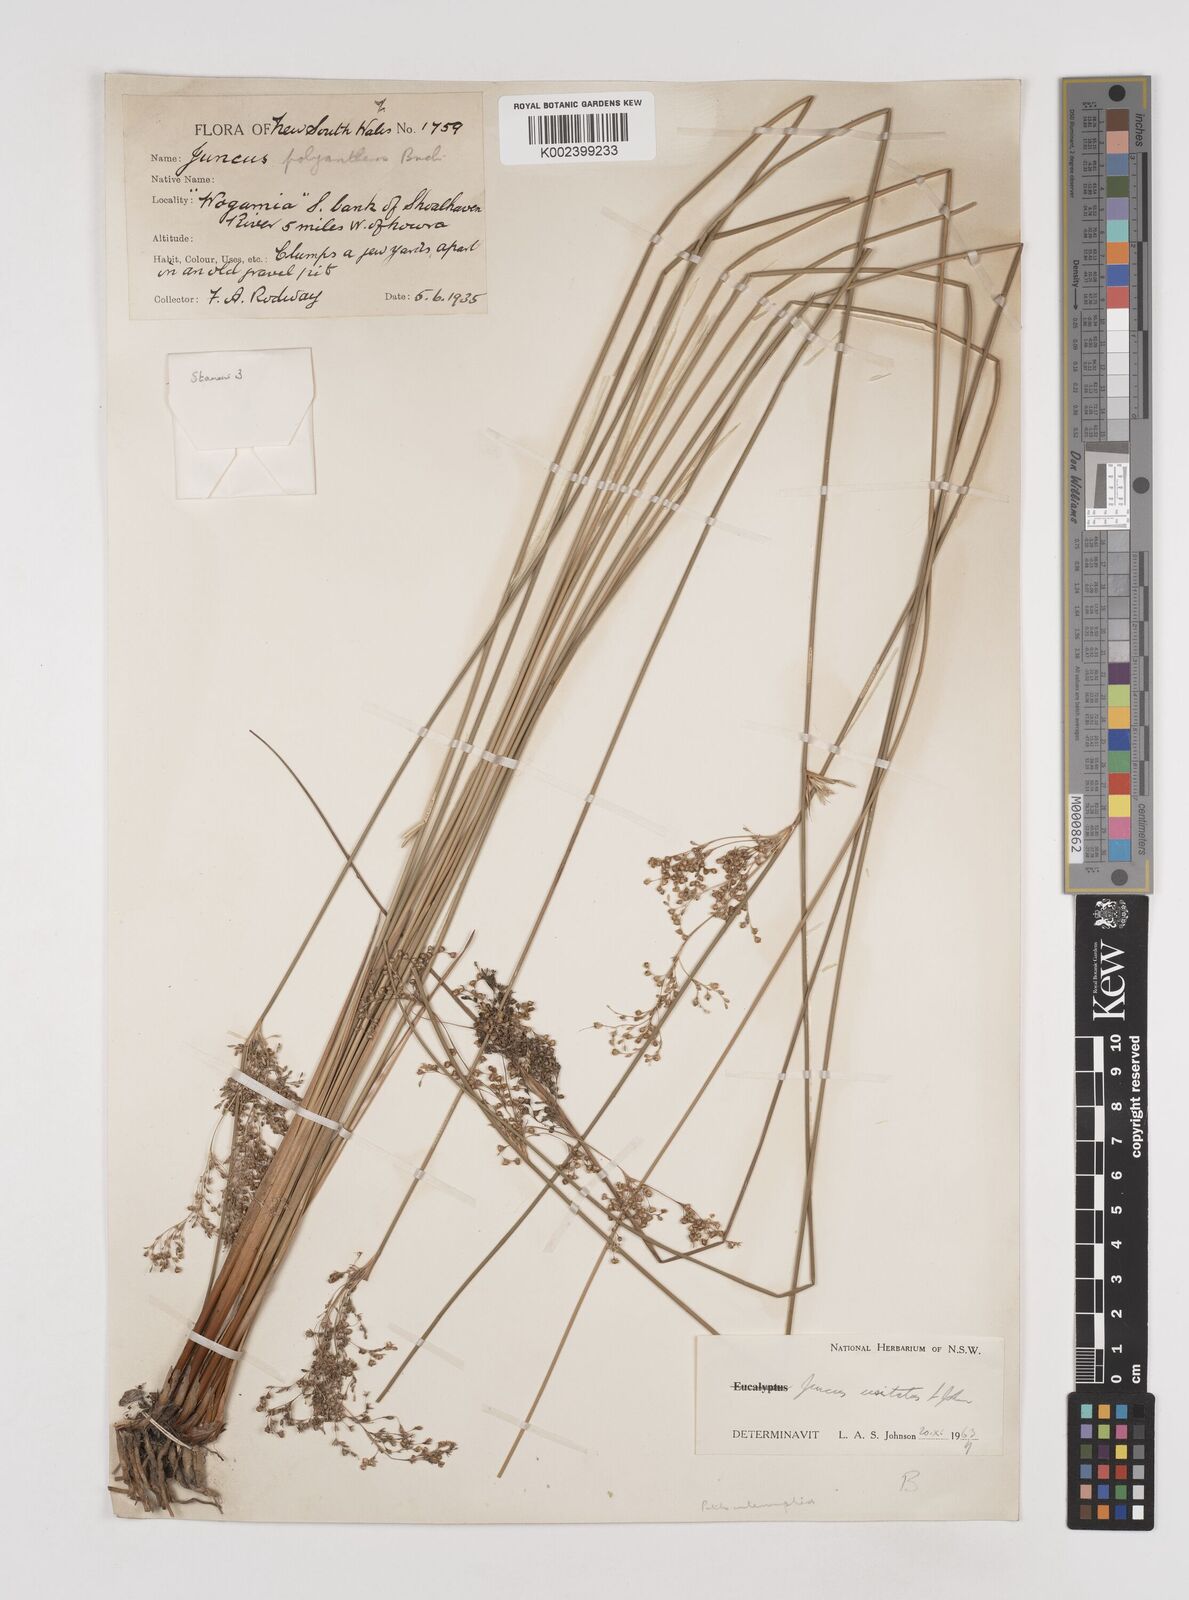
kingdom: Plantae
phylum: Tracheophyta
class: Liliopsida
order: Poales
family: Juncaceae
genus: Juncus
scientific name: Juncus usitatus
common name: Rush
